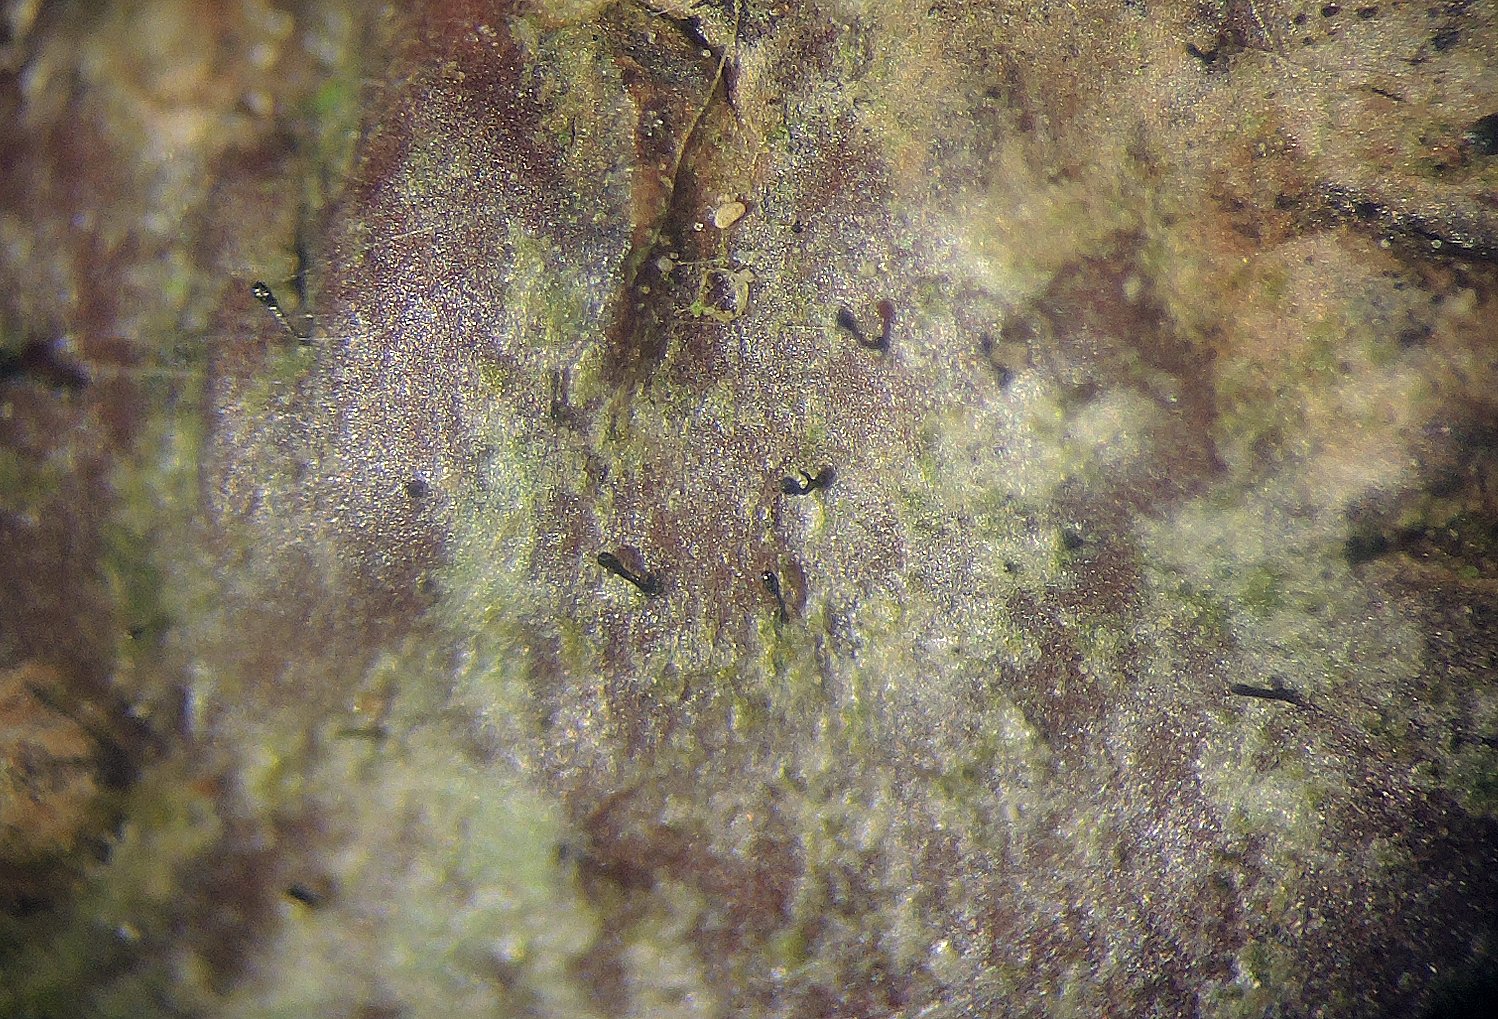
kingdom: Fungi
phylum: Ascomycota
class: Eurotiomycetes
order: Mycocaliciales
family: Mycocaliciaceae
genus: Stenocybe
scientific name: Stenocybe pullatula
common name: elle-nålesvamp
